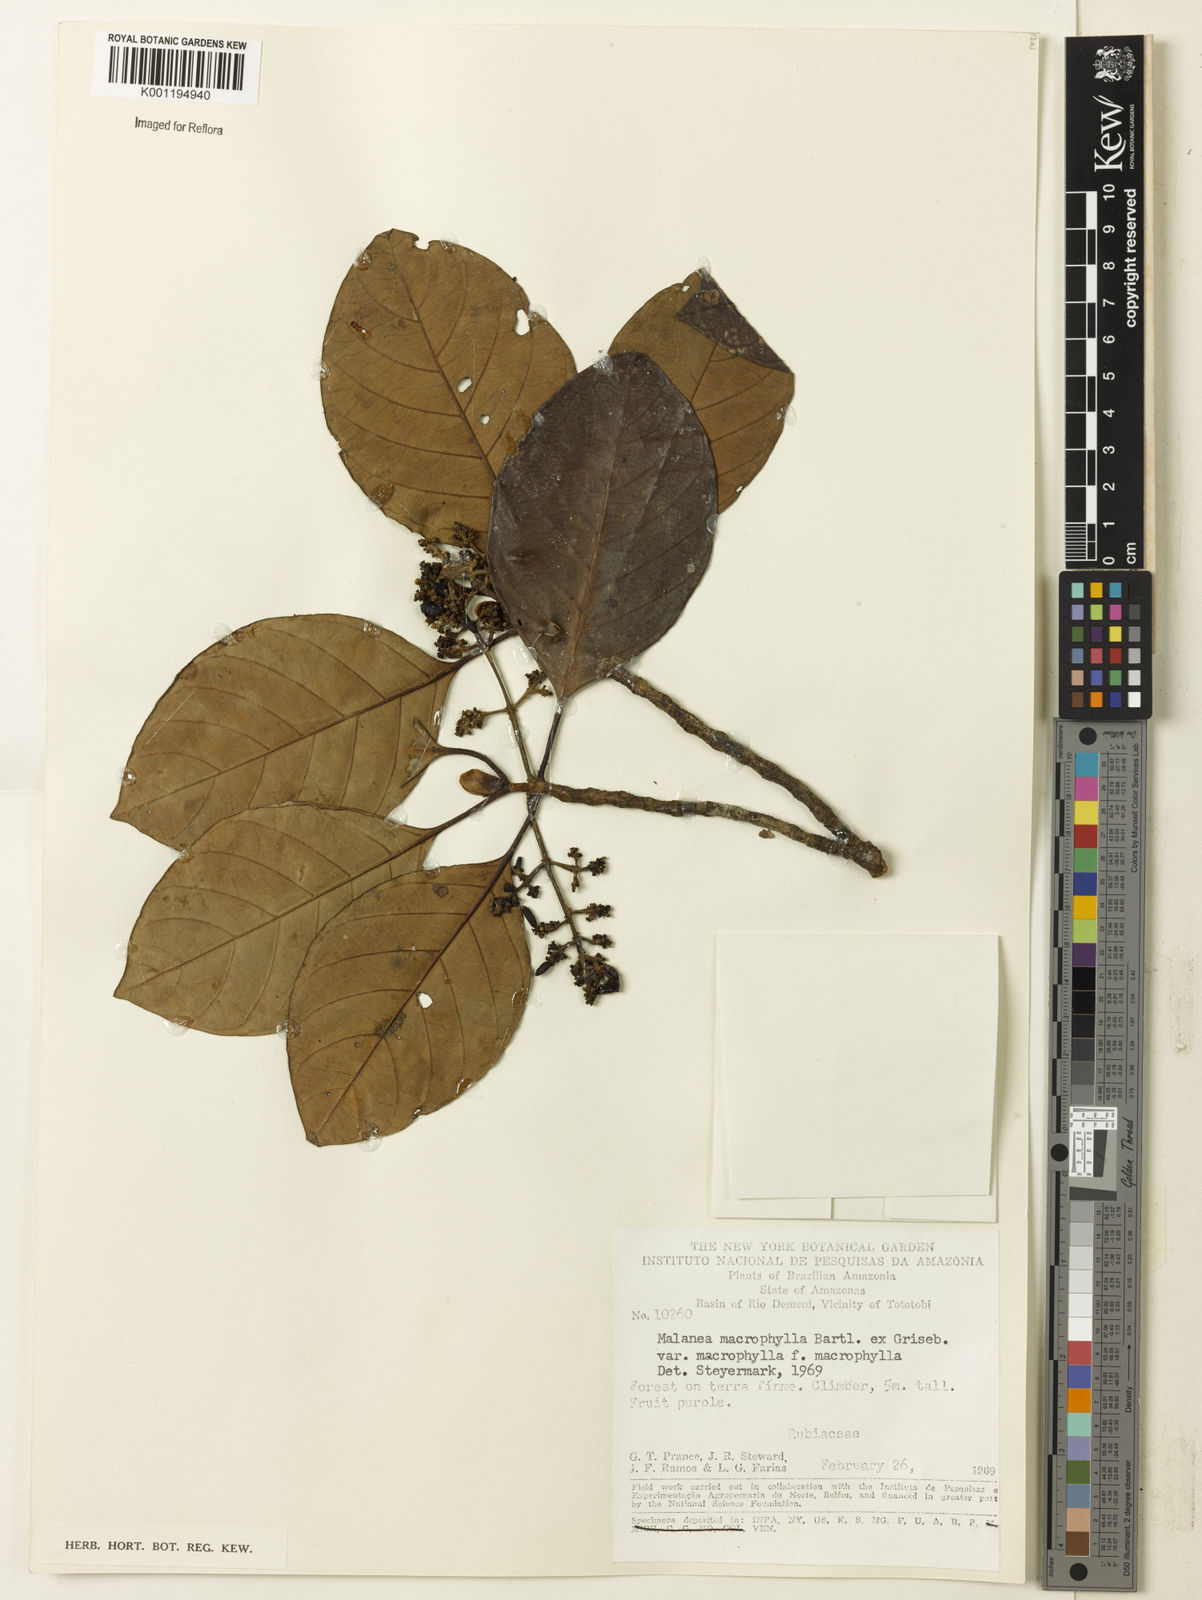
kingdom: Plantae
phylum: Tracheophyta
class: Magnoliopsida
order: Gentianales
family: Rubiaceae
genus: Malanea
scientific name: Malanea glabra
